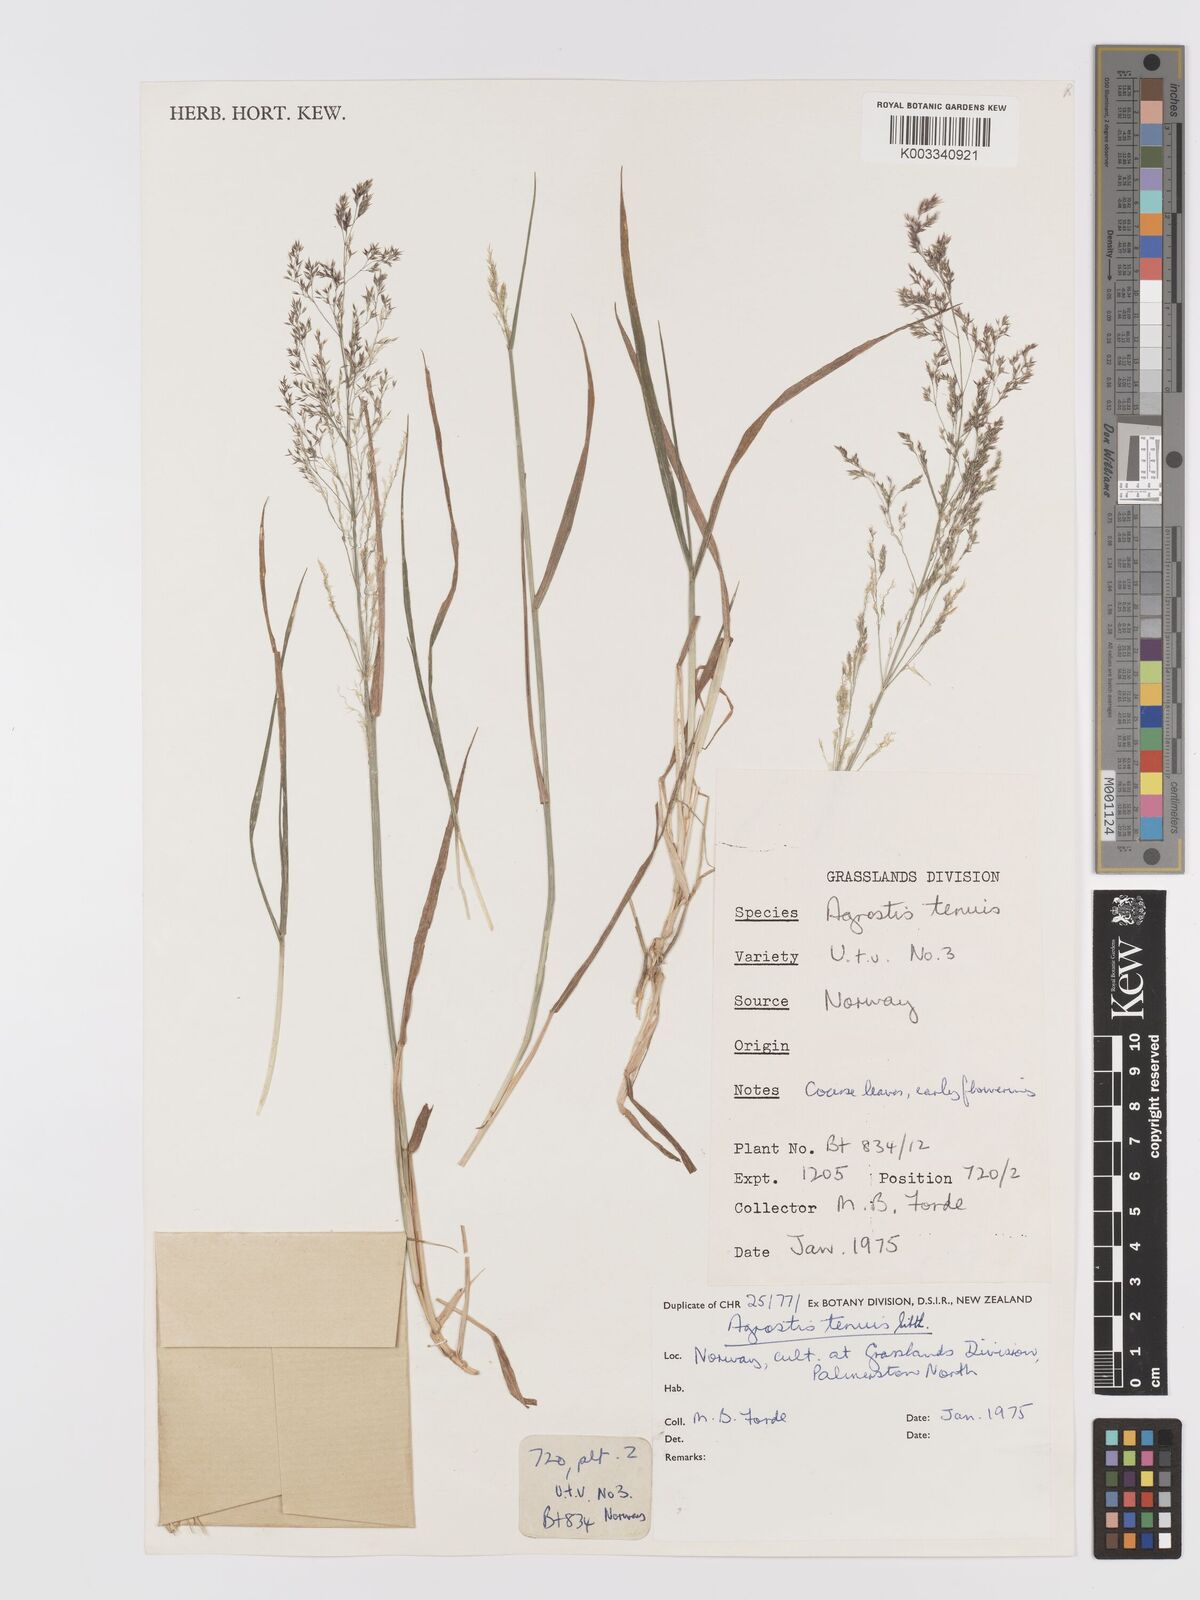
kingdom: Plantae
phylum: Tracheophyta
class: Liliopsida
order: Poales
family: Poaceae
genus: Agrostis
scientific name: Agrostis capillaris
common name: Colonial bentgrass
